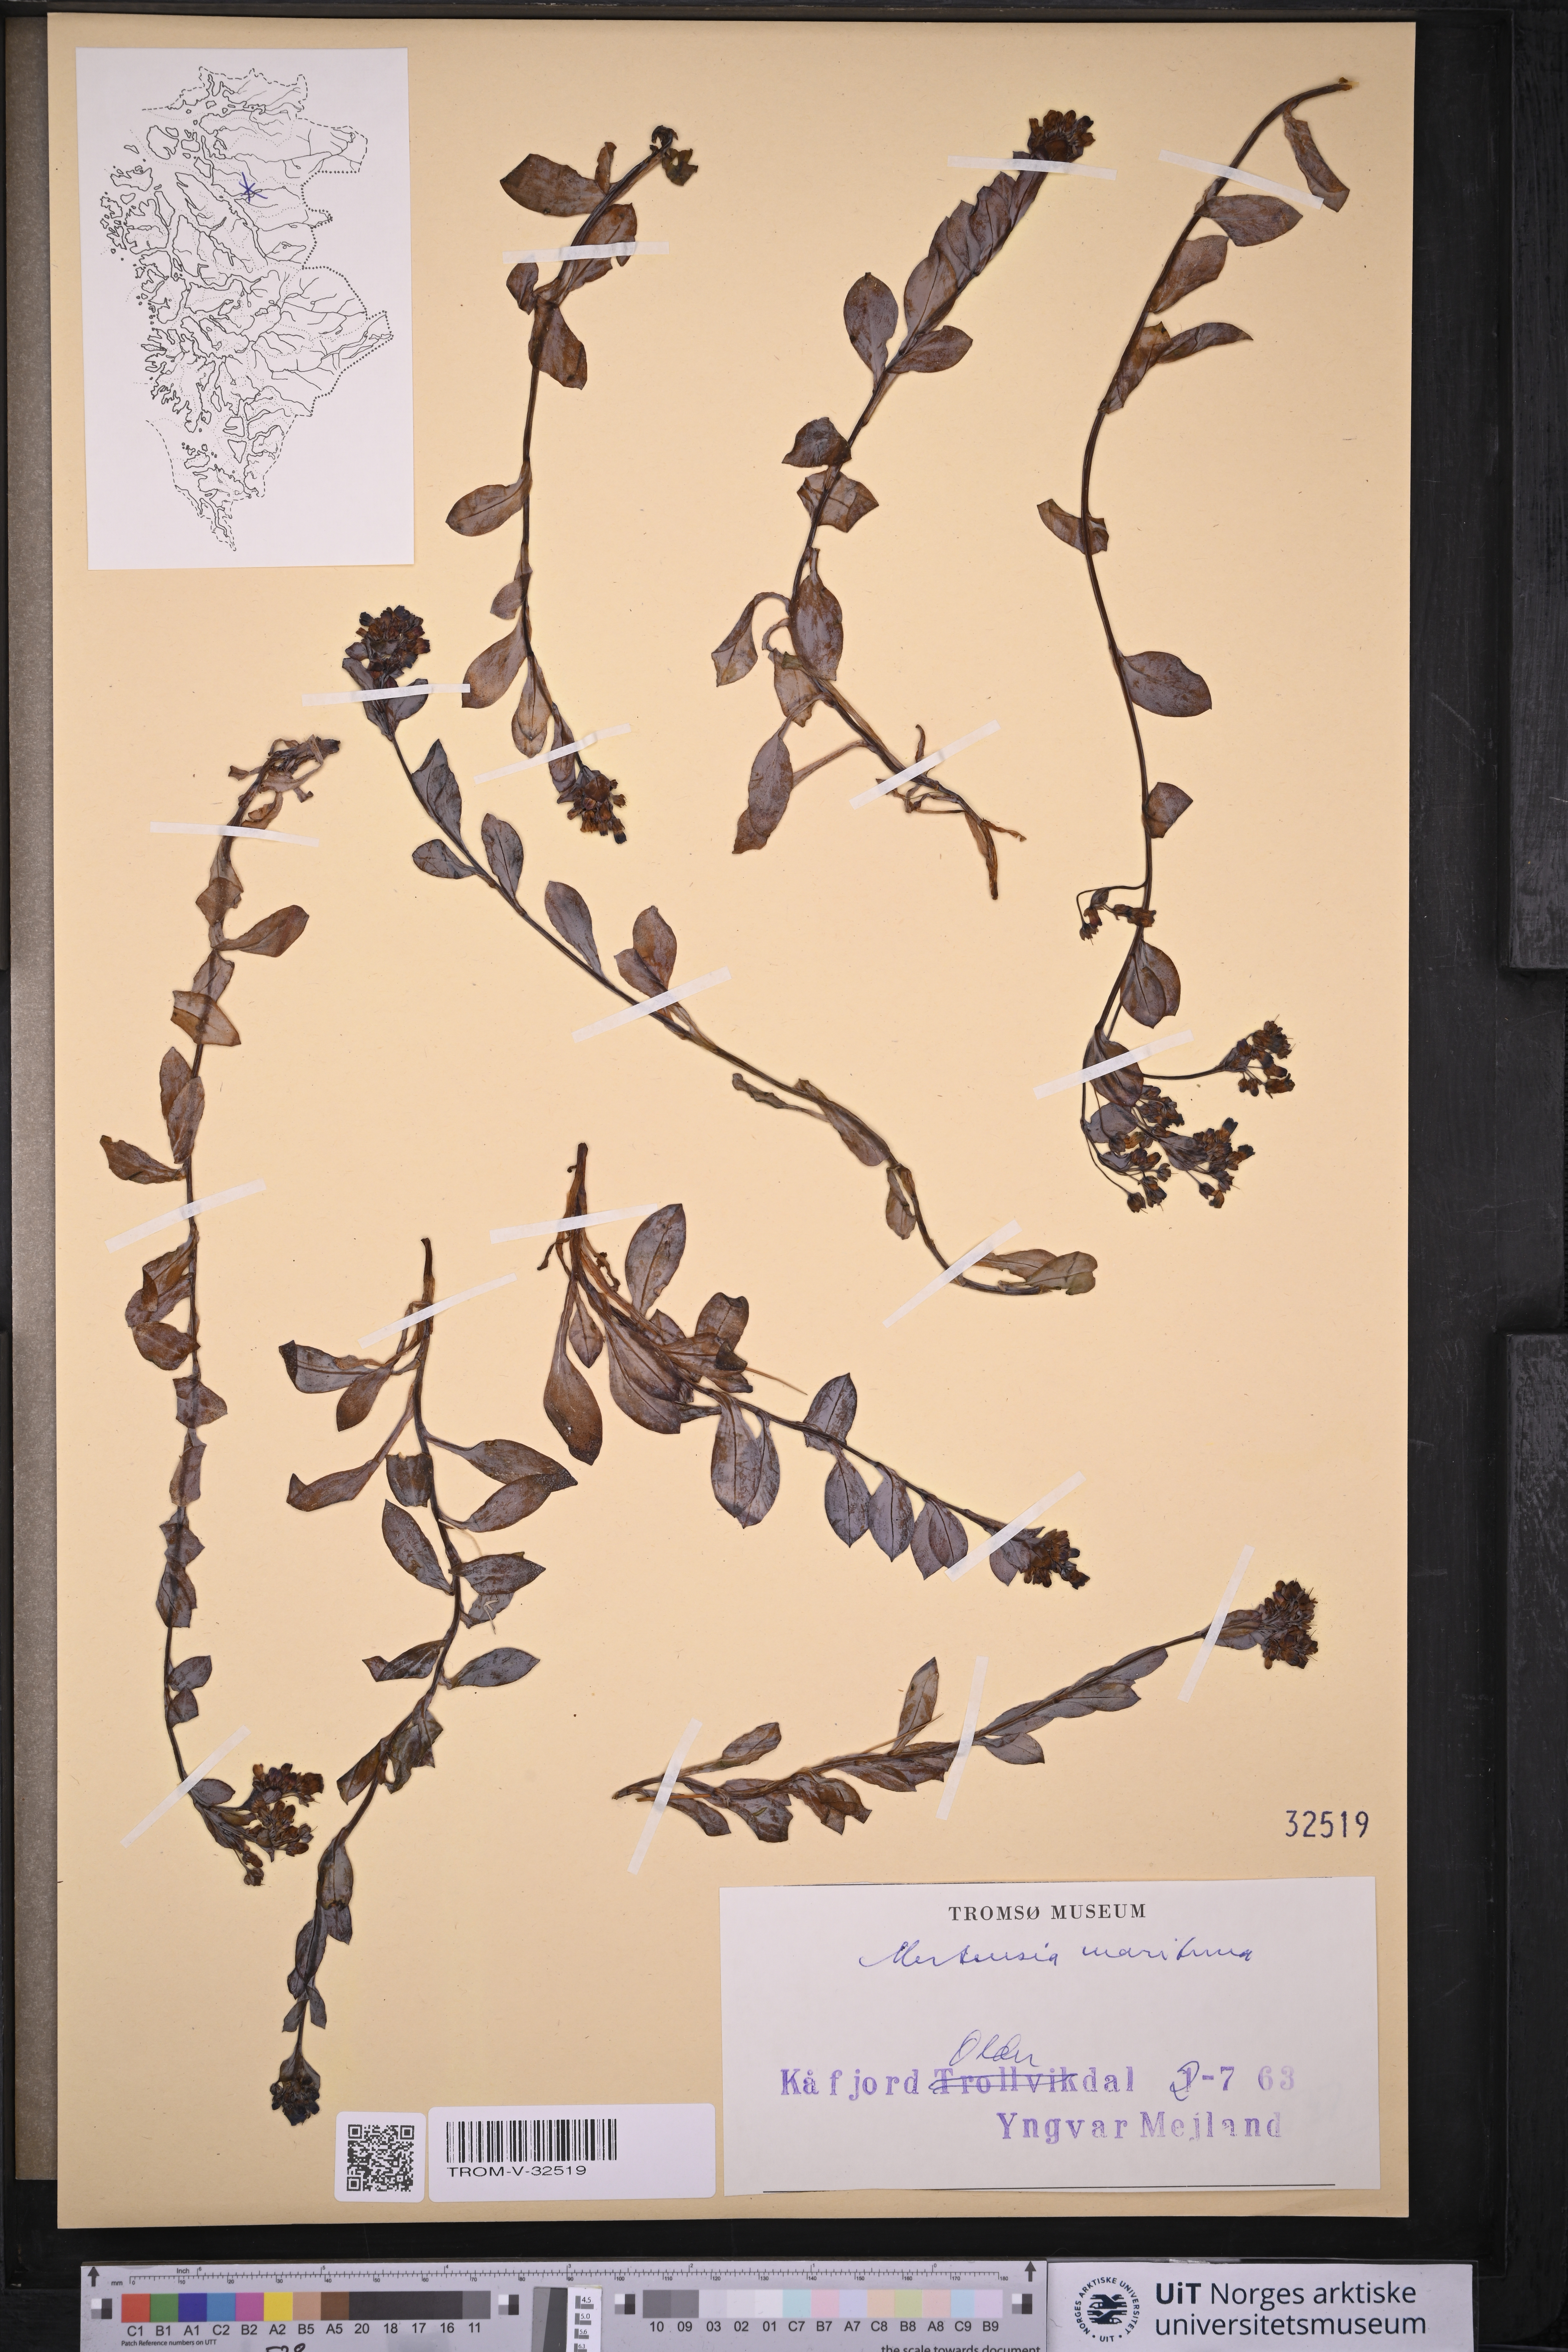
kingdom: Plantae
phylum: Tracheophyta
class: Magnoliopsida
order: Boraginales
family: Boraginaceae
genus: Mertensia
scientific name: Mertensia maritima
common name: Oysterplant
